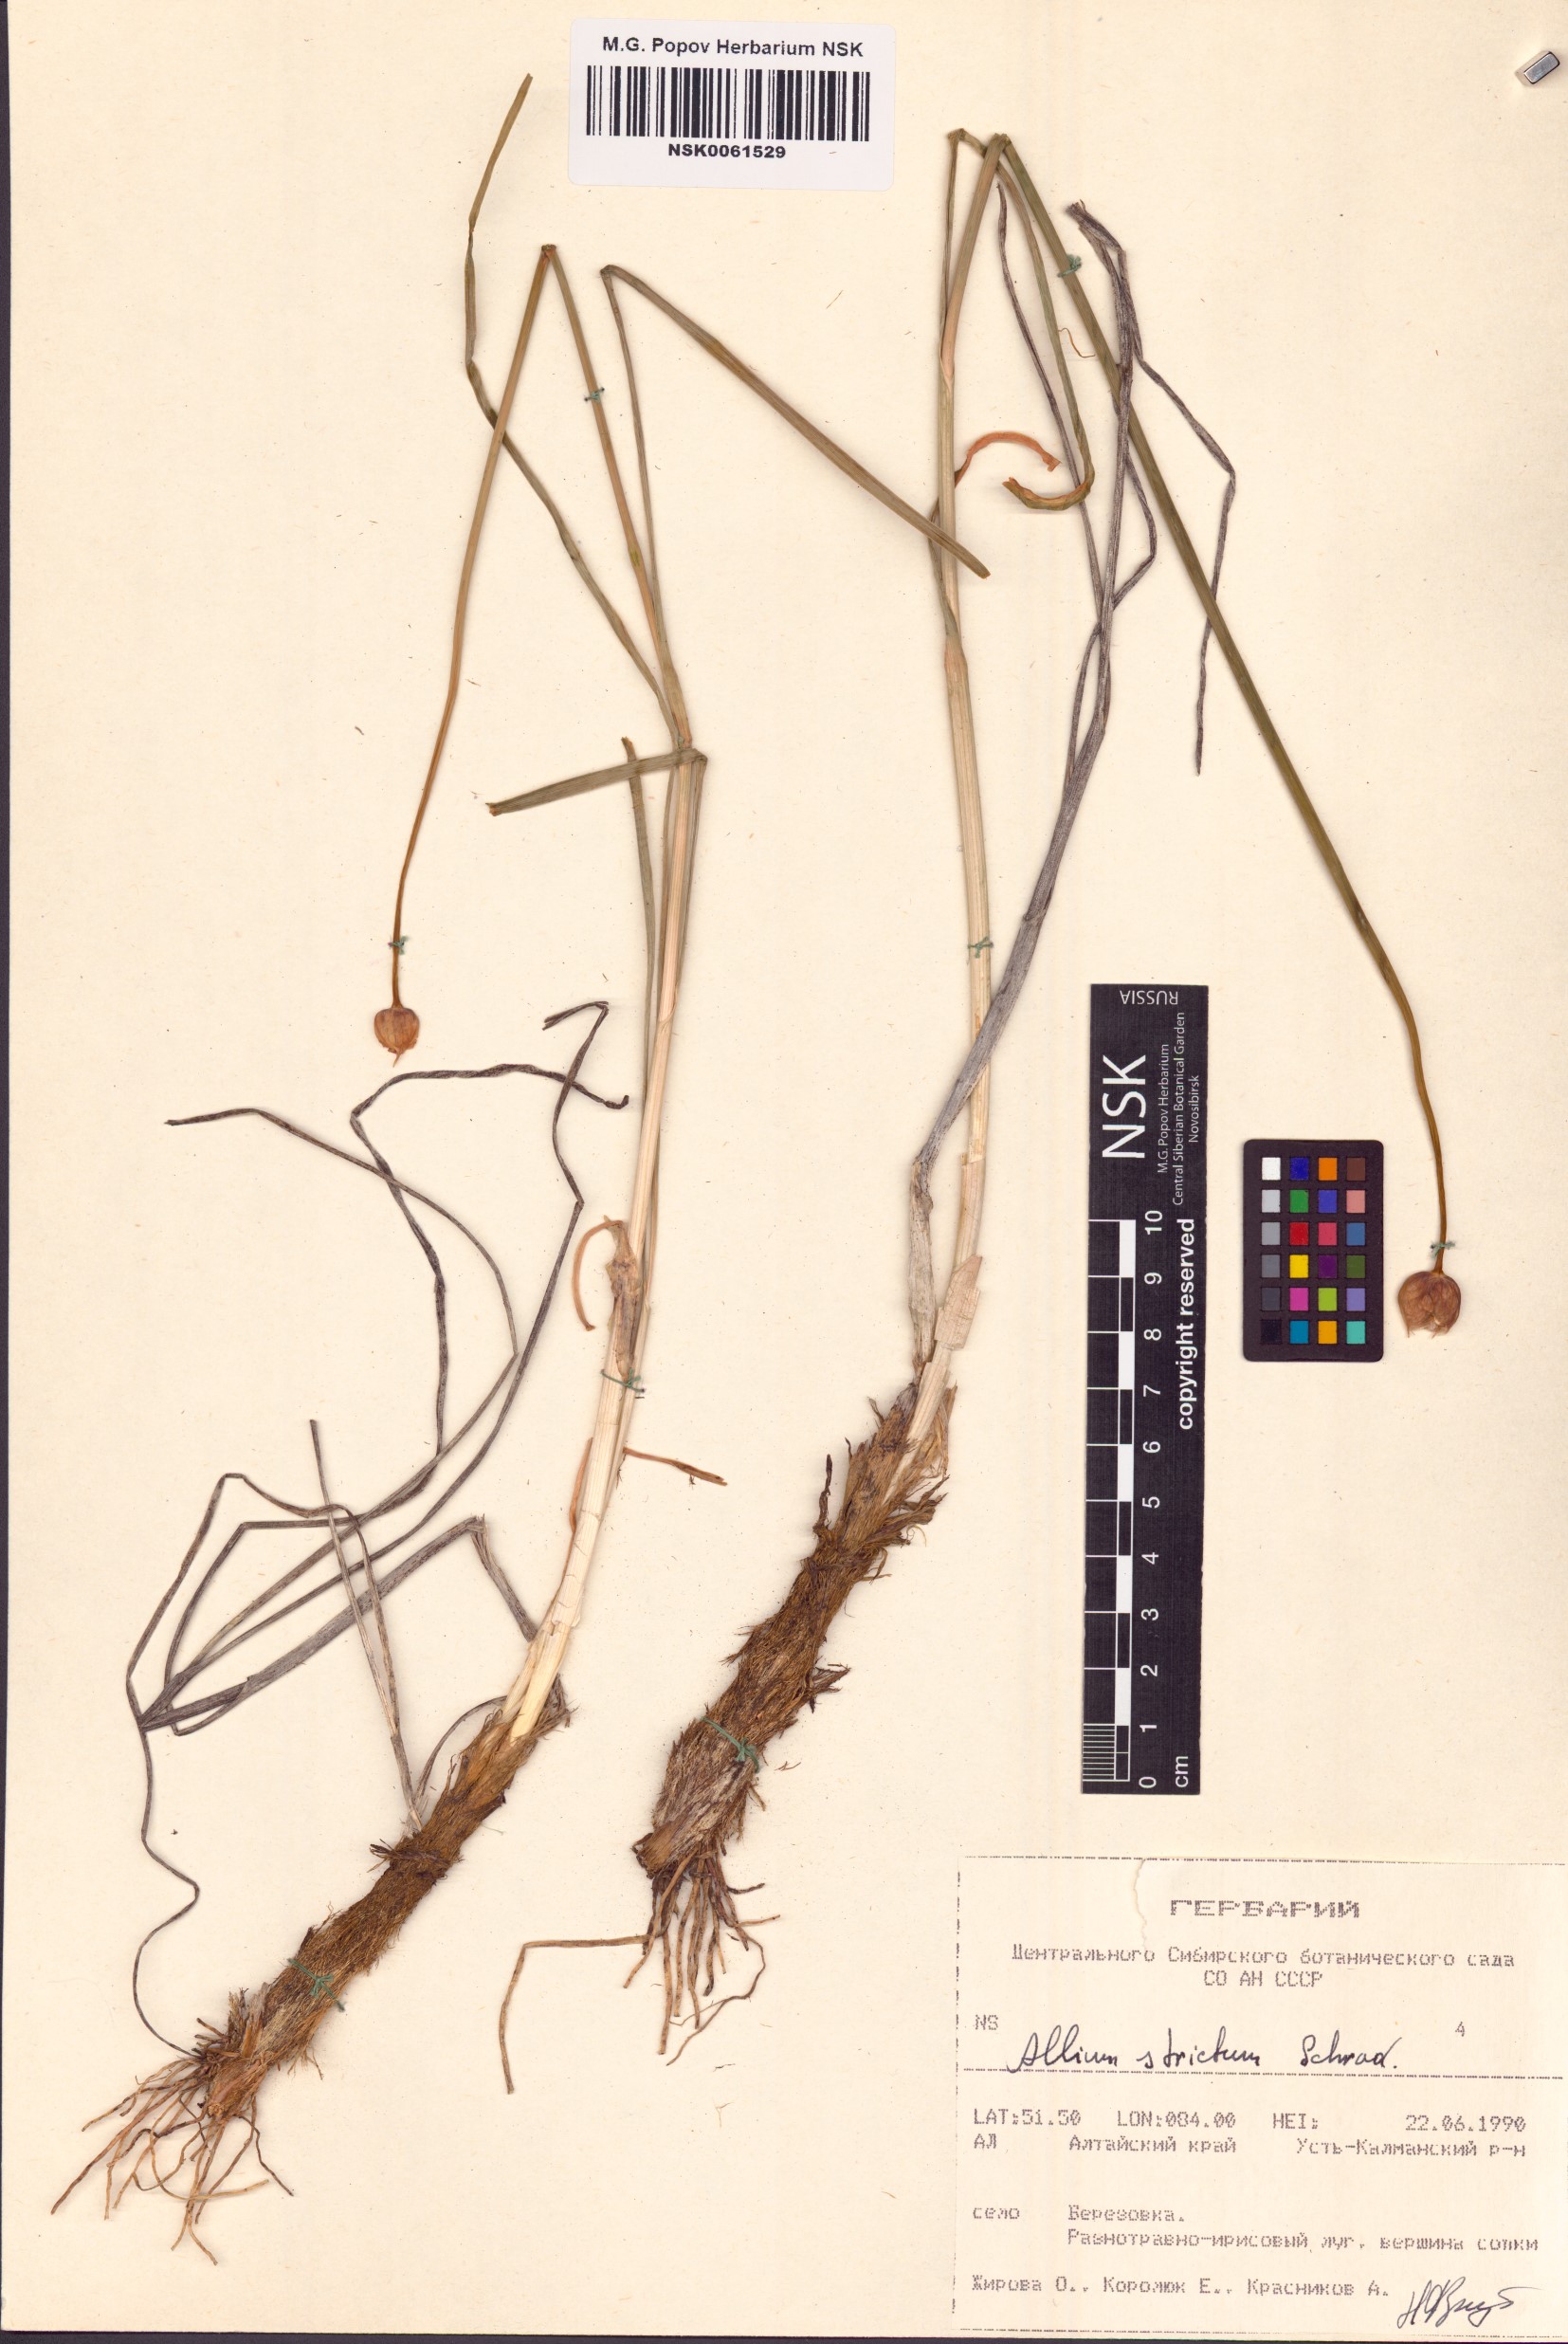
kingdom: Plantae
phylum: Tracheophyta
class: Liliopsida
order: Asparagales
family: Amaryllidaceae
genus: Allium
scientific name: Allium strictum
